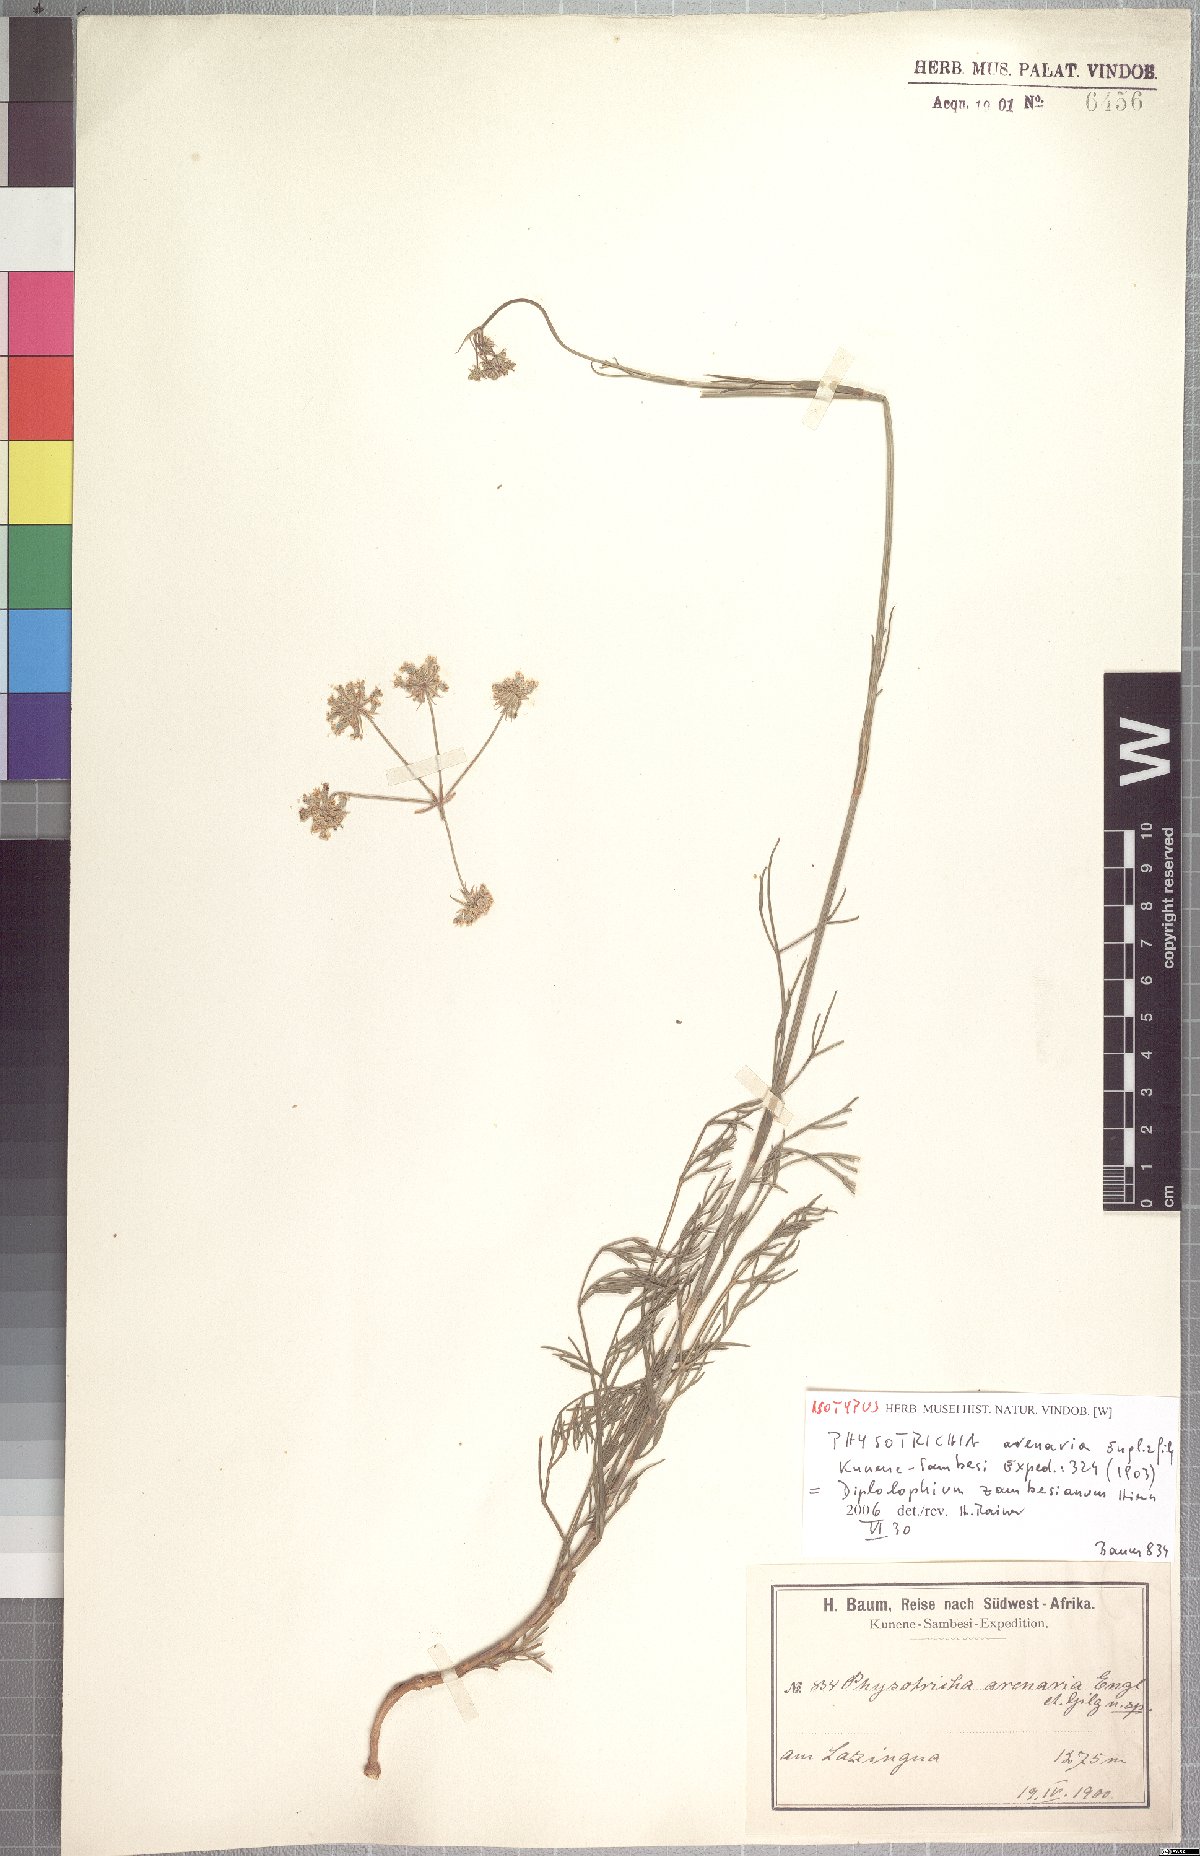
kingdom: Plantae
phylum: Tracheophyta
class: Magnoliopsida
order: Apiales
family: Apiaceae
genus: Diplolophium
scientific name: Diplolophium zambesianum
